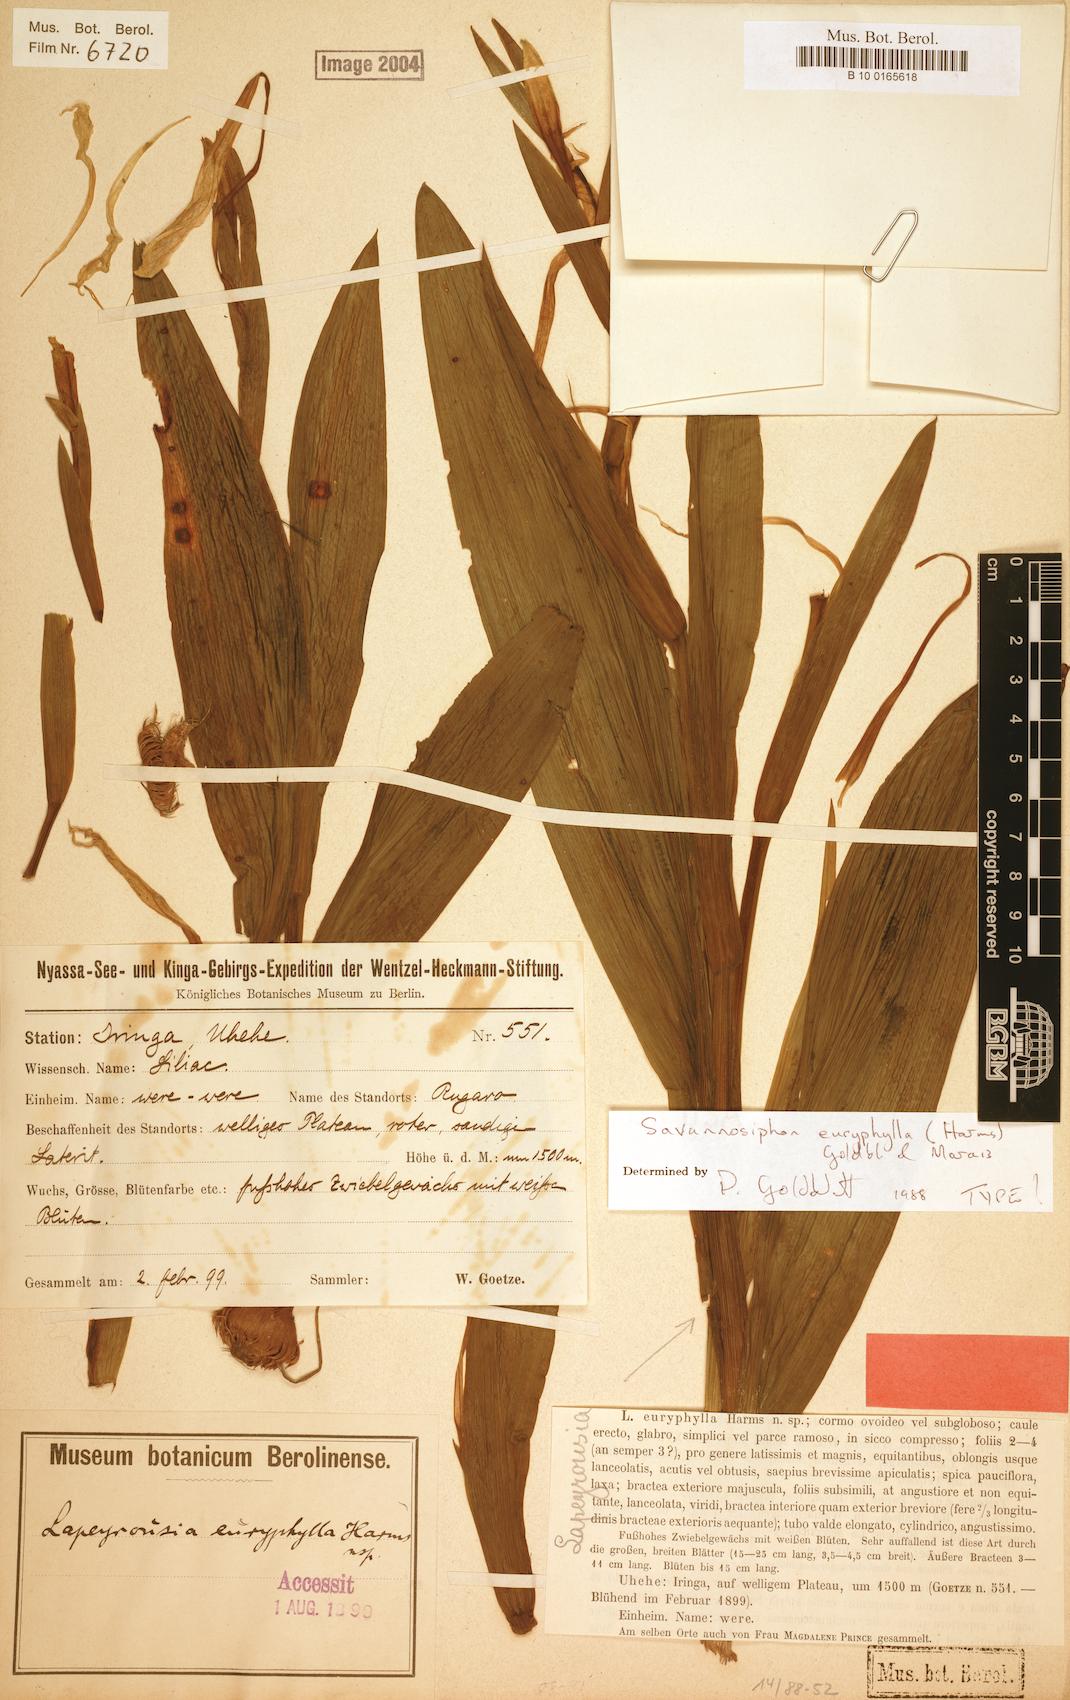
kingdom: Plantae
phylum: Tracheophyta
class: Liliopsida
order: Asparagales
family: Iridaceae
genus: Savannosiphon
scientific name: Savannosiphon euryphylla
